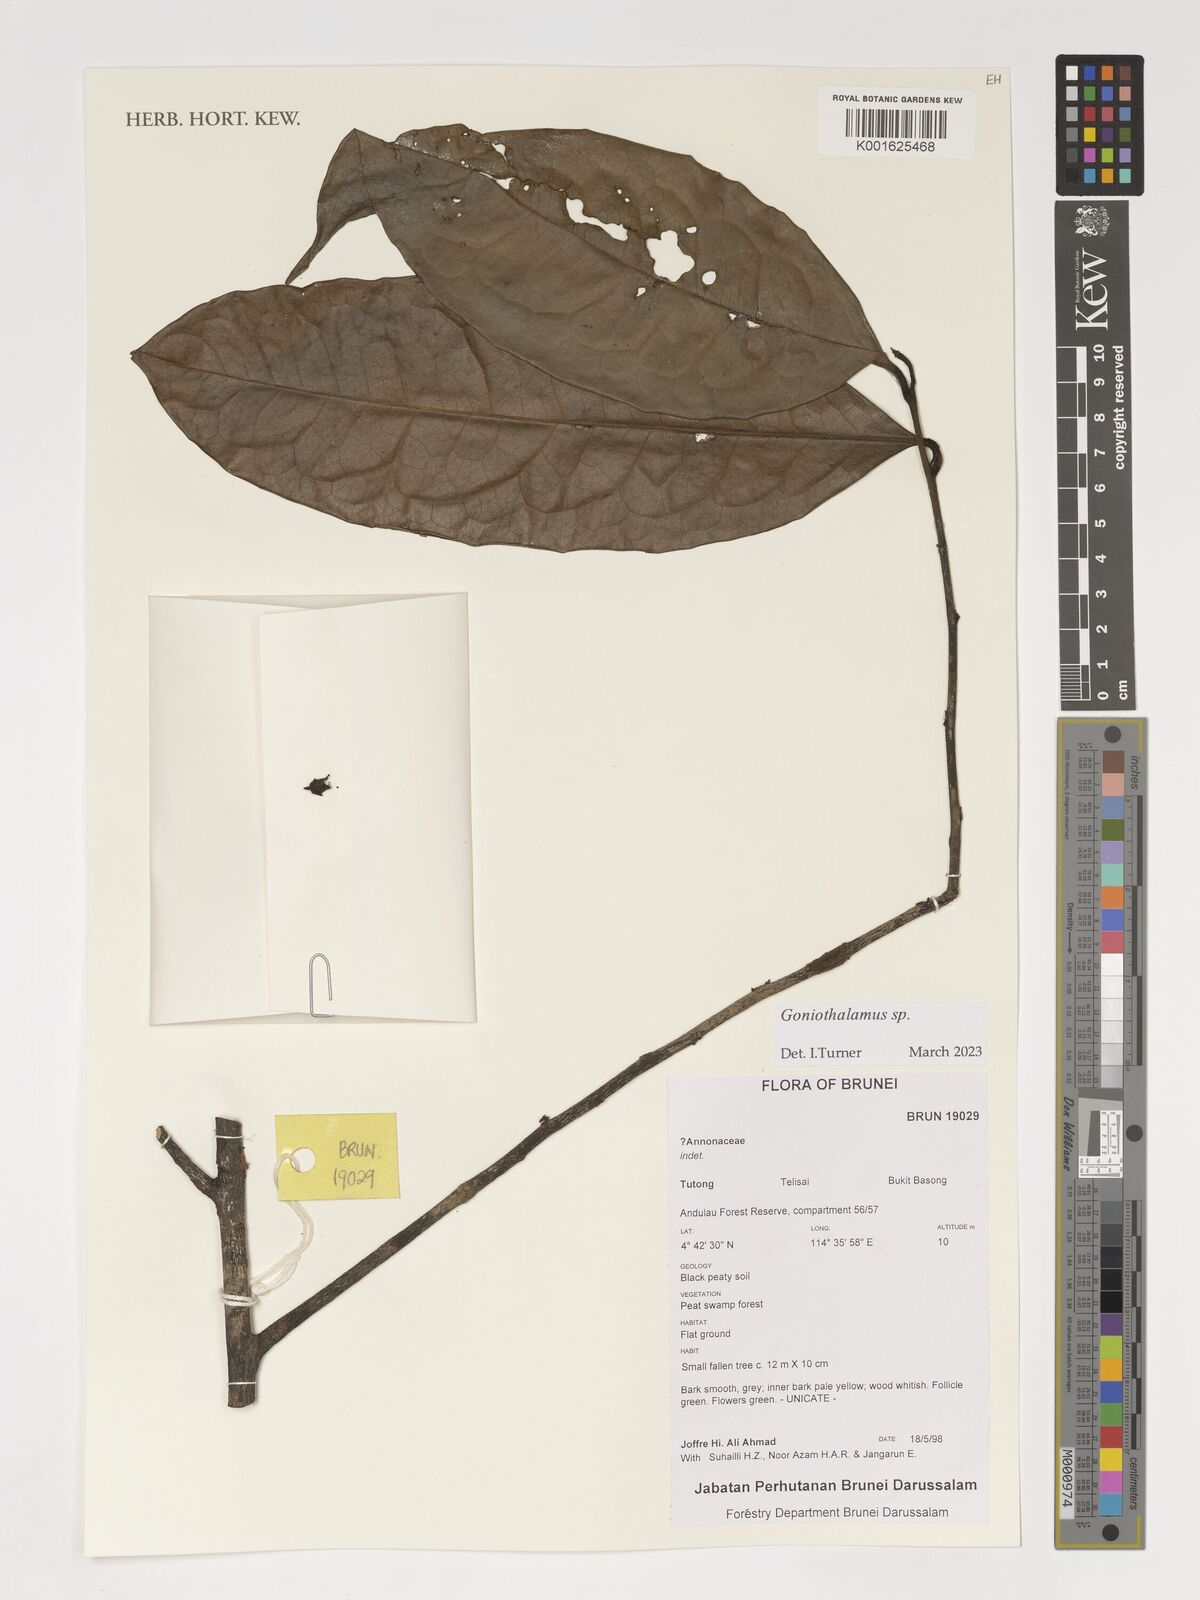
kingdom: Plantae
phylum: Tracheophyta
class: Magnoliopsida
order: Magnoliales
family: Annonaceae
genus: Goniothalamus
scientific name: Goniothalamus
